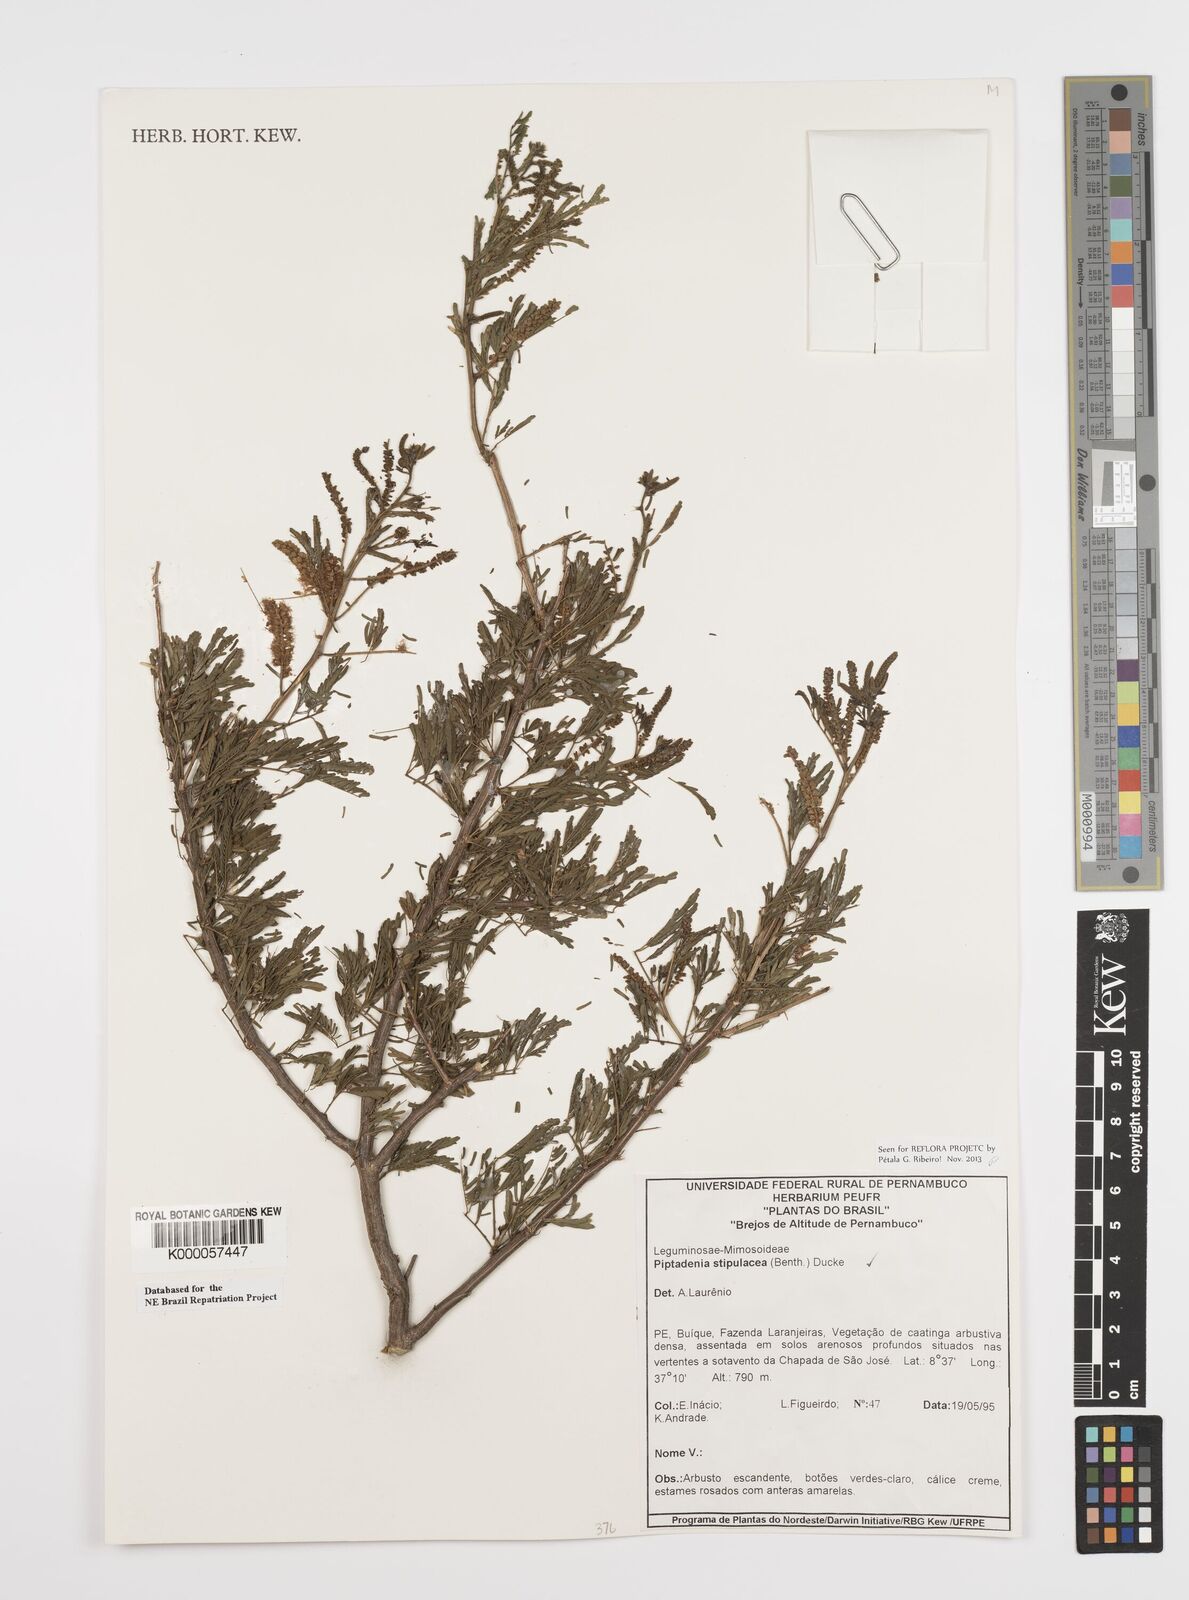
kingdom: Plantae
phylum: Tracheophyta
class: Magnoliopsida
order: Fabales
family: Fabaceae
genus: Piptadenia
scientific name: Piptadenia retusa
